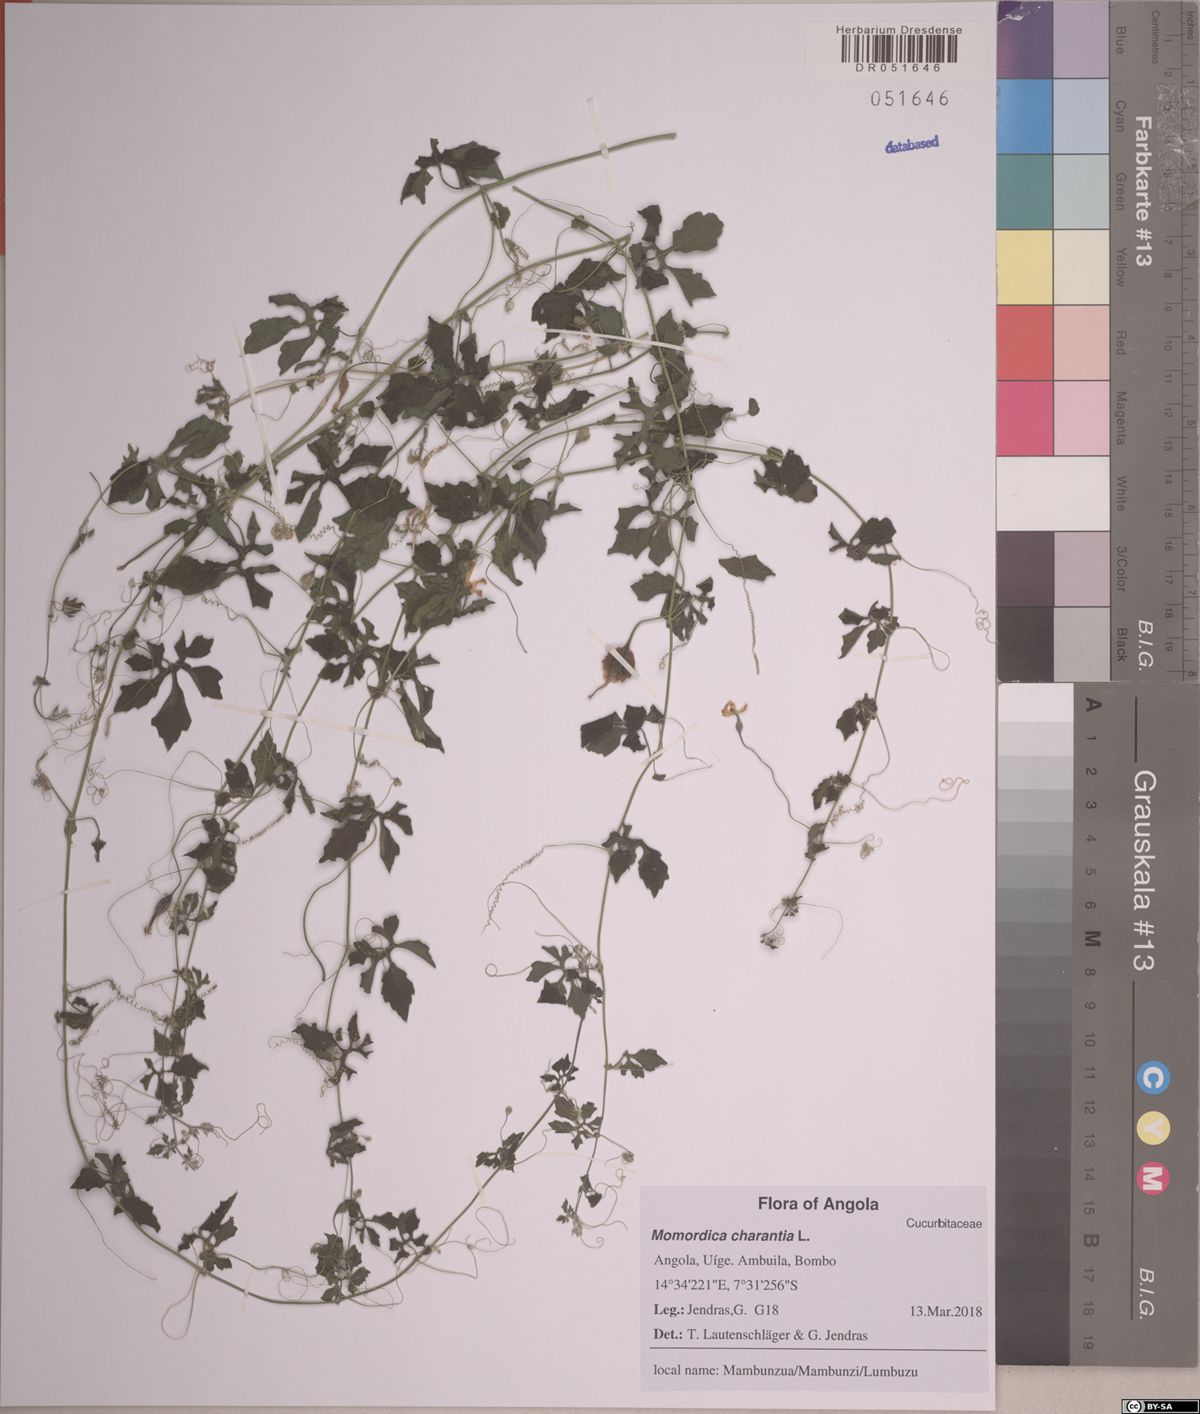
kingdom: Plantae
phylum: Tracheophyta
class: Magnoliopsida
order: Cucurbitales
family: Cucurbitaceae
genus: Momordica
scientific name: Momordica charantia
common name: Balsampear
